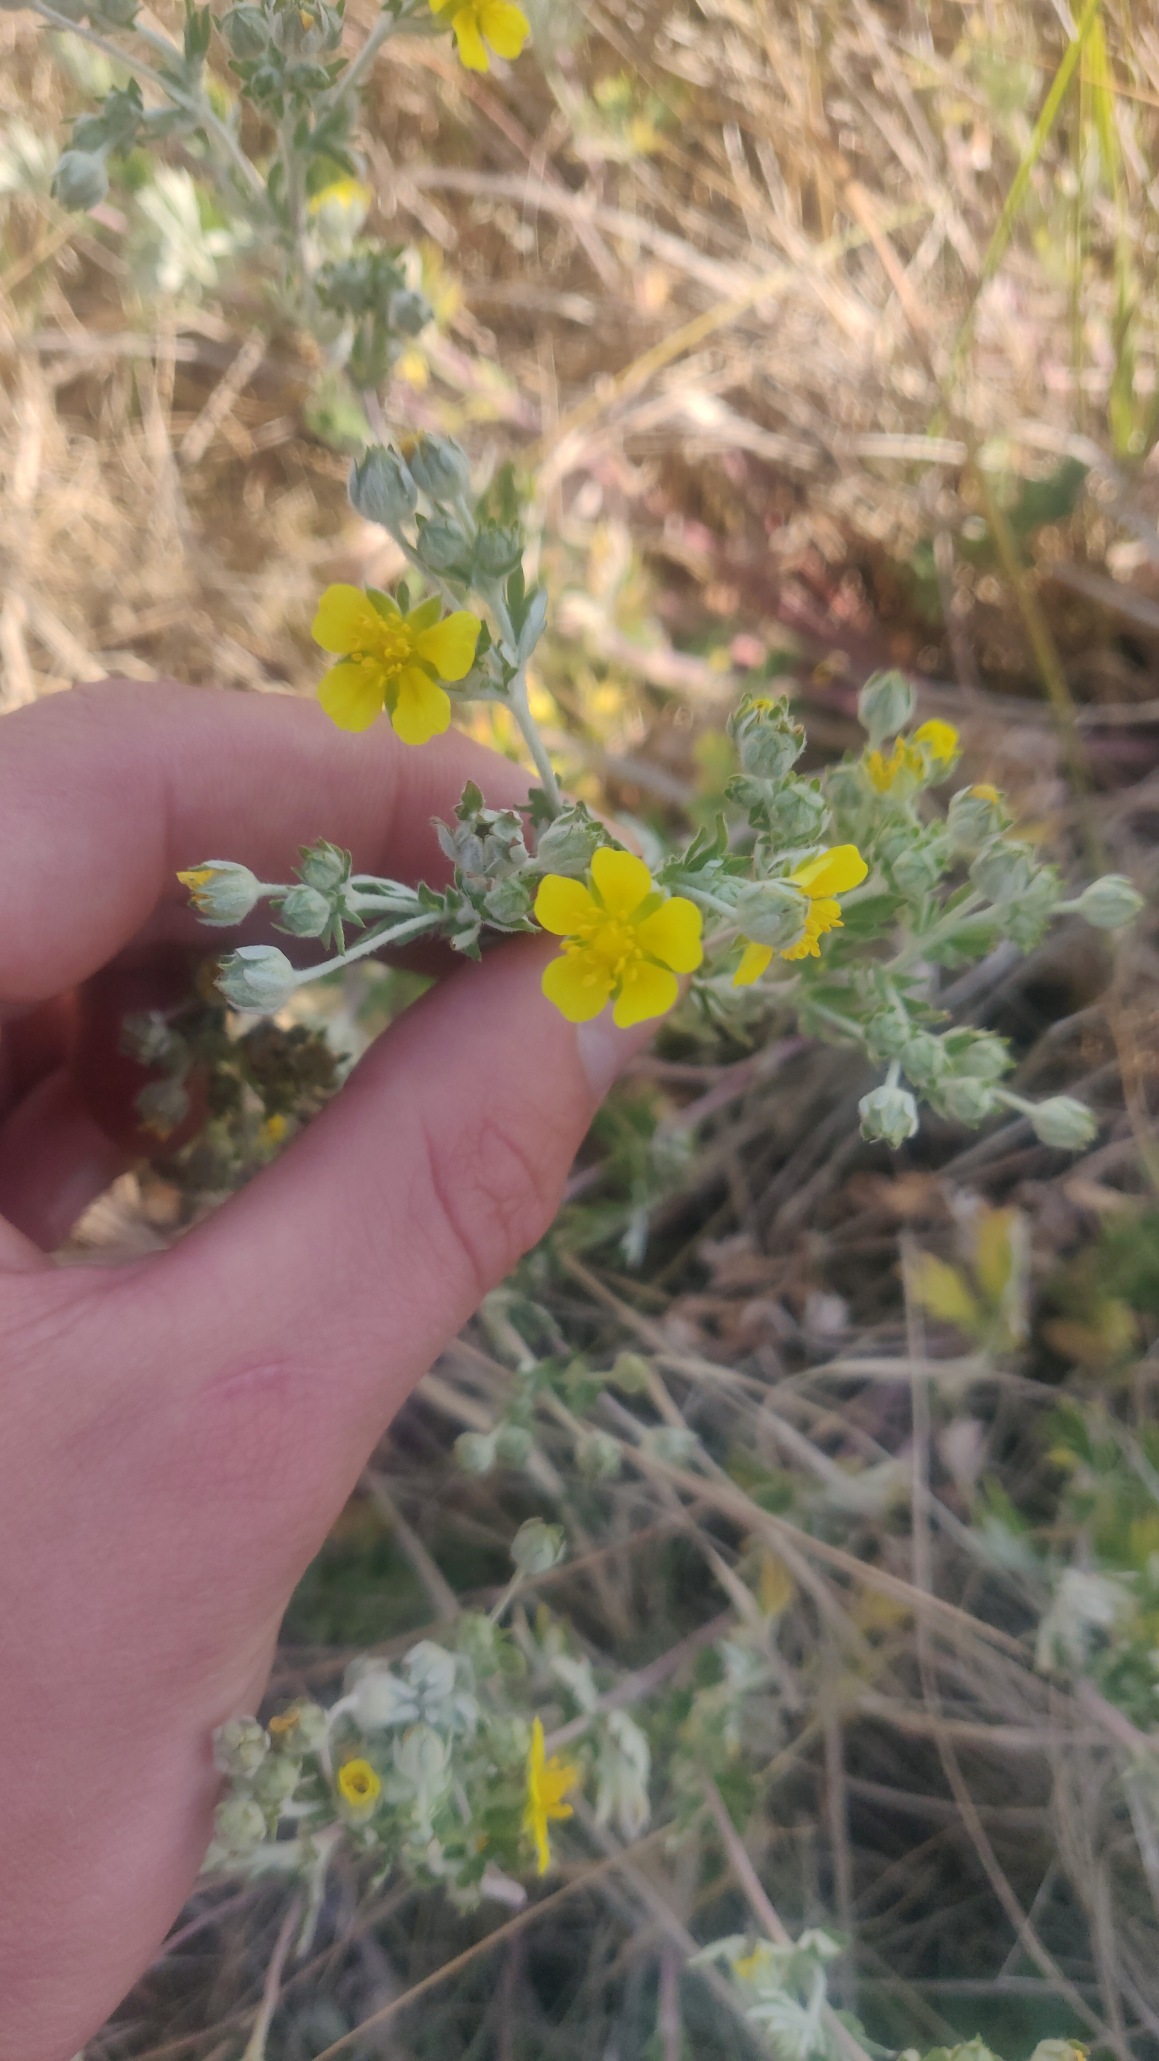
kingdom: Plantae
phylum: Tracheophyta
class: Magnoliopsida
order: Rosales
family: Rosaceae
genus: Potentilla
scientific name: Potentilla argentea
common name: Sølv-potentil
